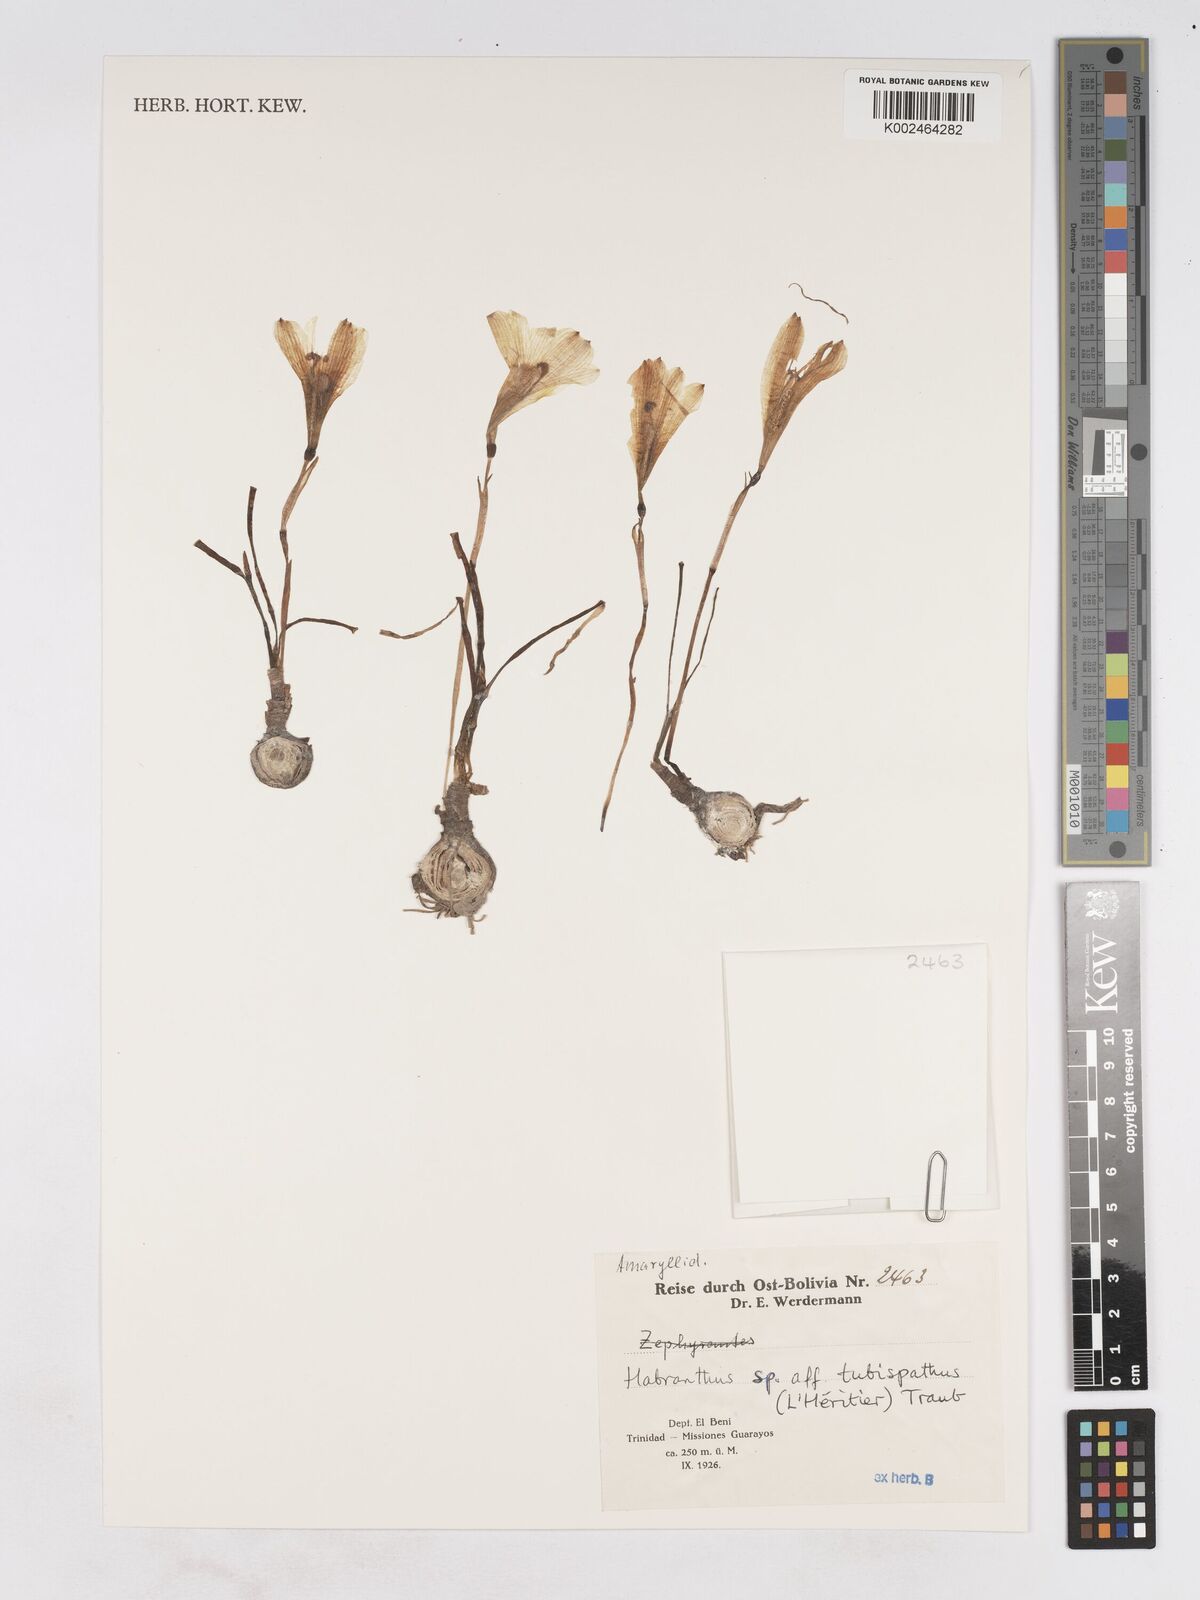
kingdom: Plantae
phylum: Tracheophyta
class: Liliopsida
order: Asparagales
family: Amaryllidaceae
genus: Zephyranthes
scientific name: Zephyranthes tubispatha
